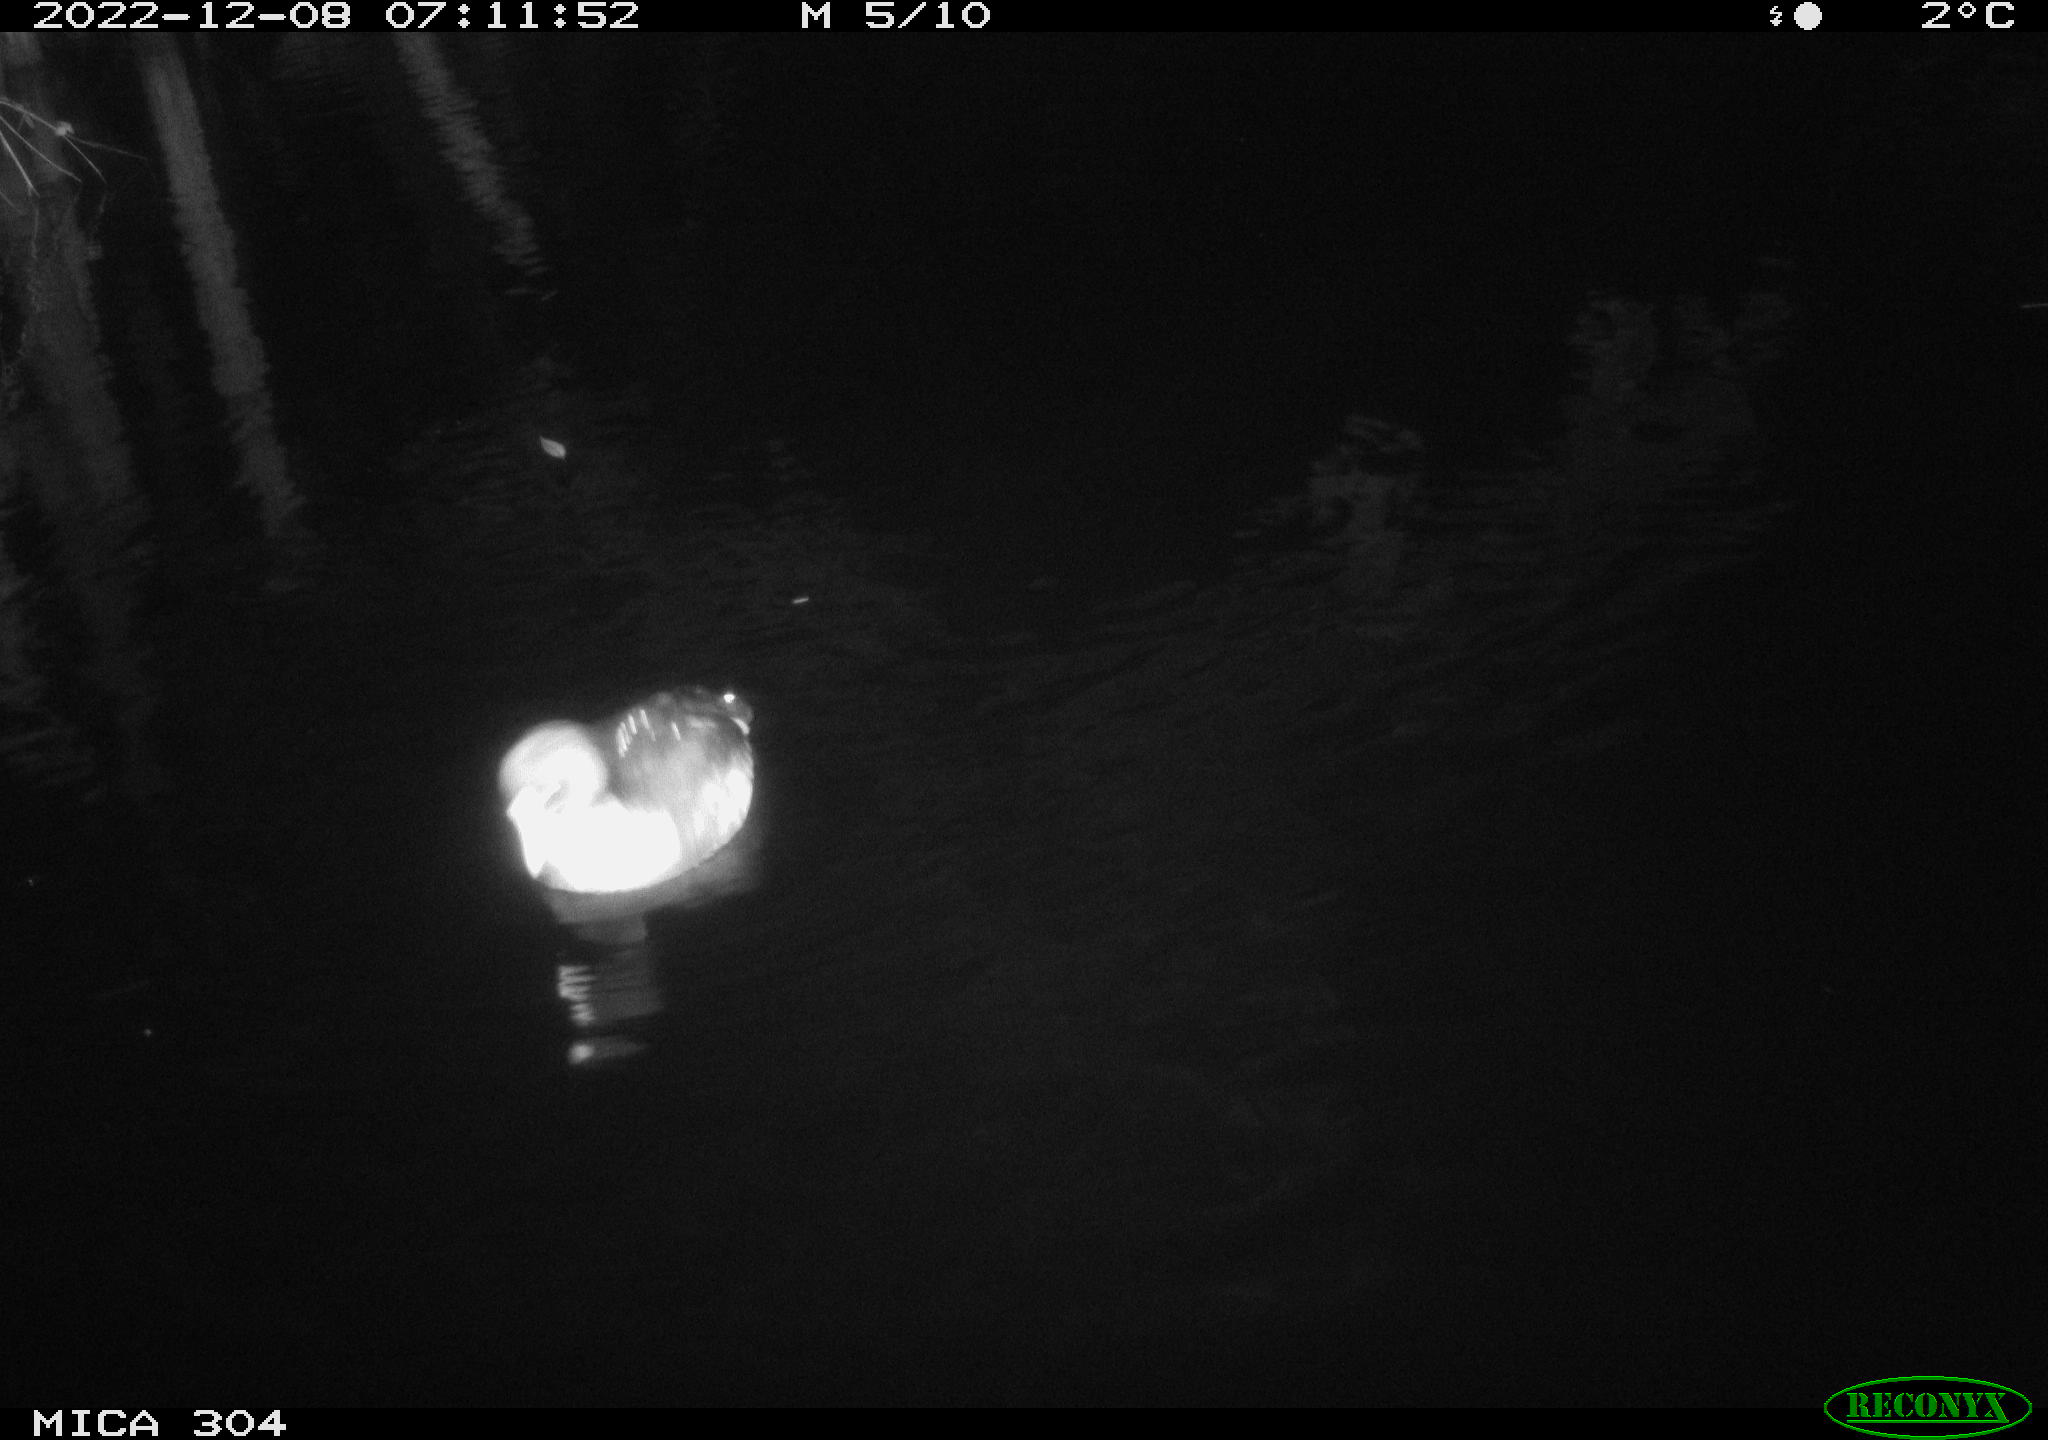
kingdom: Animalia
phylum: Chordata
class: Aves
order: Gruiformes
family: Rallidae
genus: Fulica
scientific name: Fulica atra
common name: Eurasian coot
